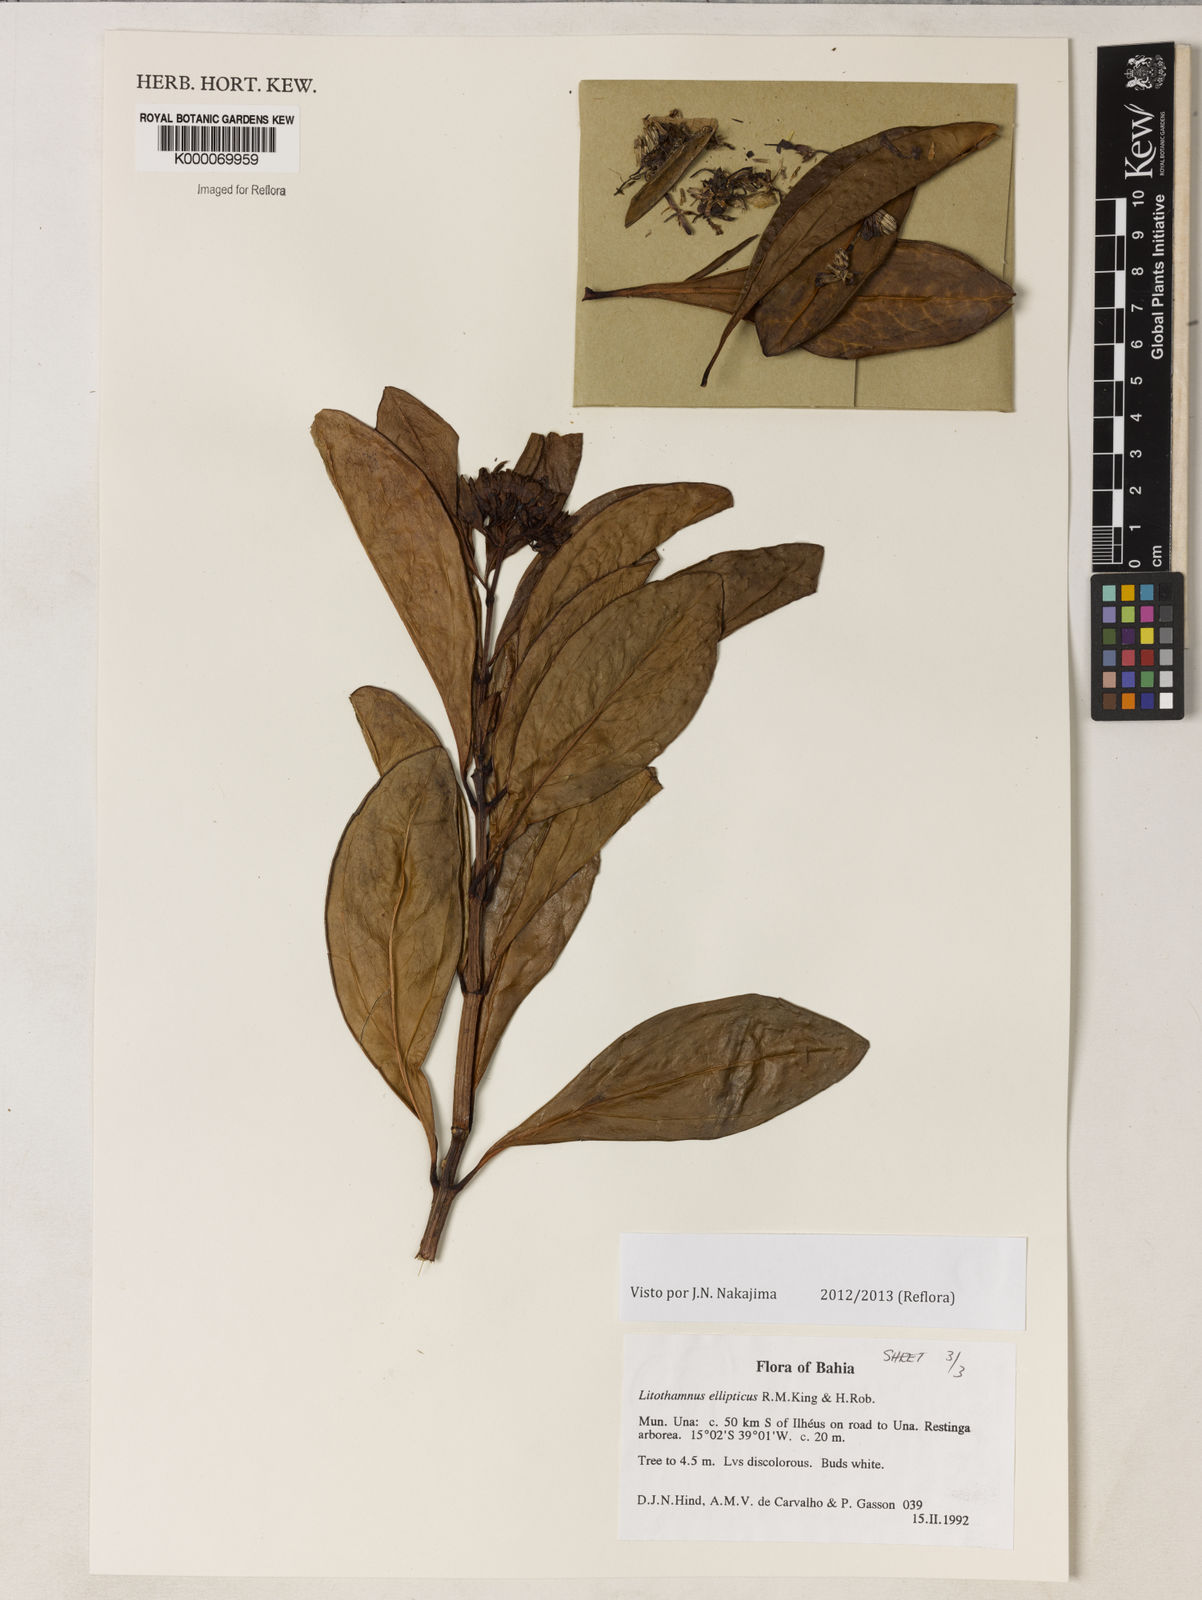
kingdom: Plantae
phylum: Tracheophyta
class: Magnoliopsida
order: Asterales
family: Asteraceae
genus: Litothamnus
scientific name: Litothamnus ellipticus
